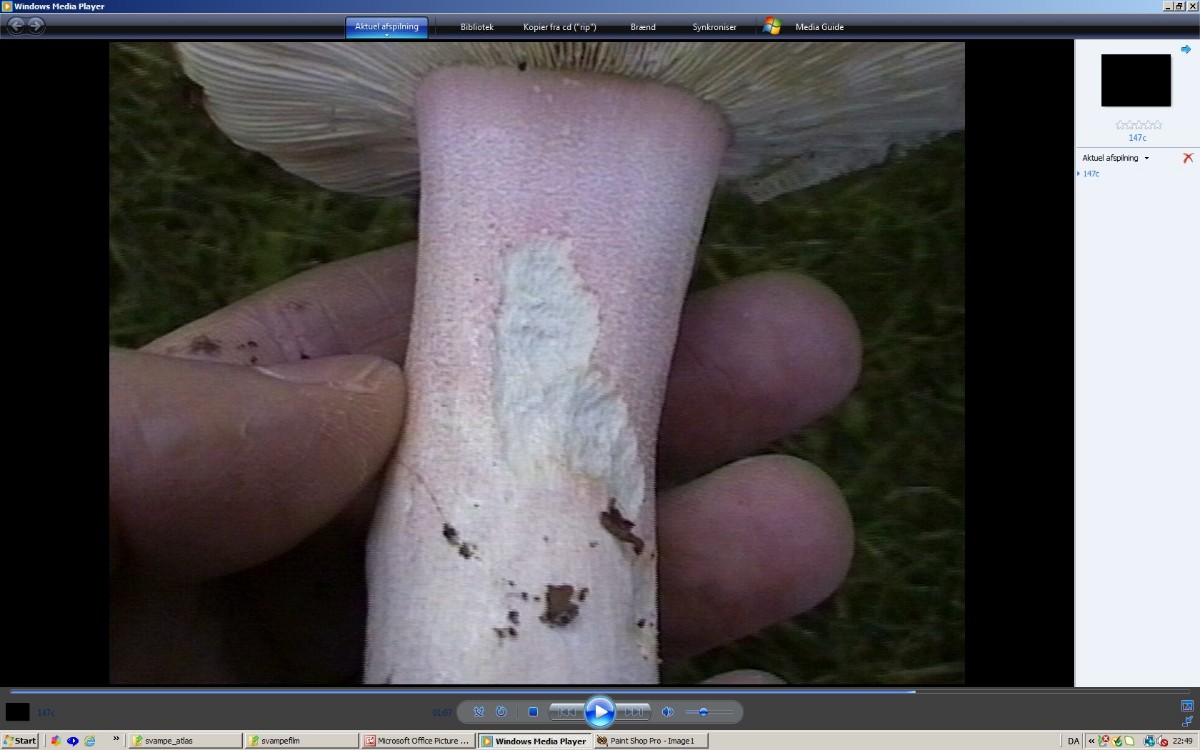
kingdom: Fungi
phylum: Basidiomycota
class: Agaricomycetes
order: Russulales
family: Russulaceae
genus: Russula
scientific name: Russula olivacea
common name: stor skørhat
